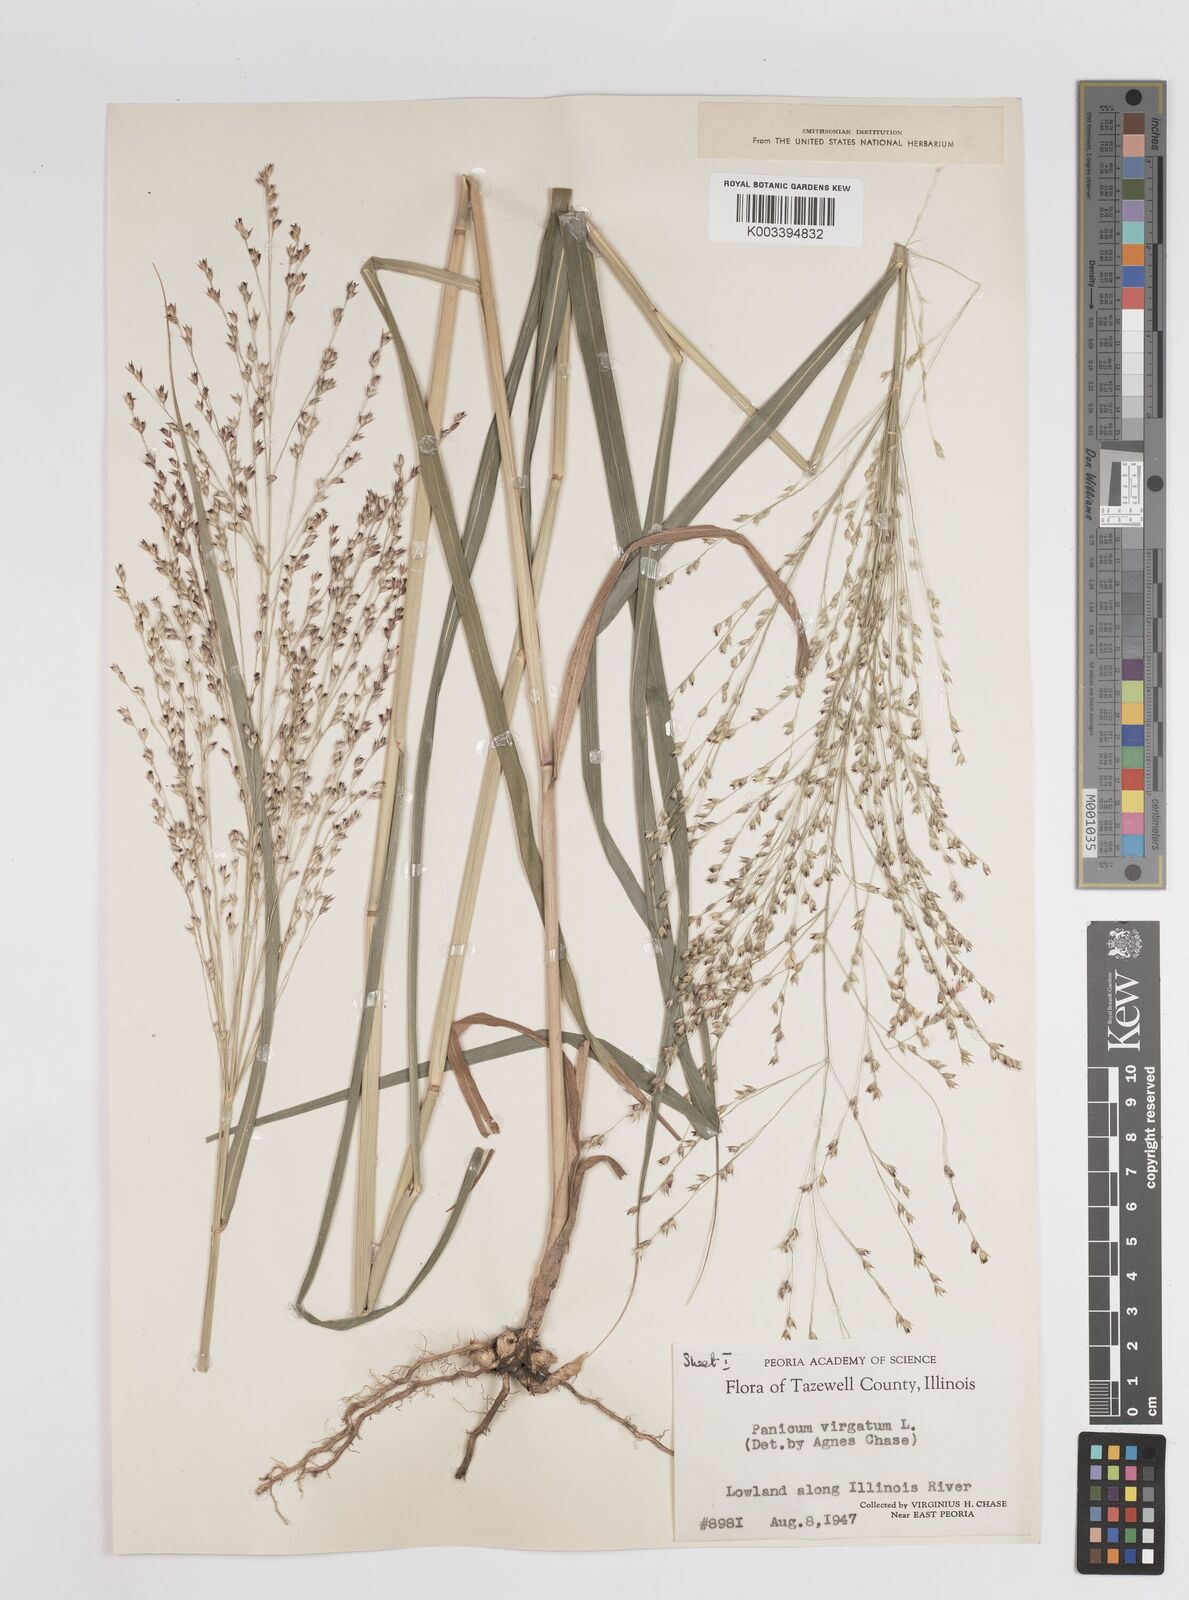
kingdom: Plantae
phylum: Tracheophyta
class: Liliopsida
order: Poales
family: Poaceae
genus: Panicum
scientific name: Panicum virgatum
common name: Switchgrass
